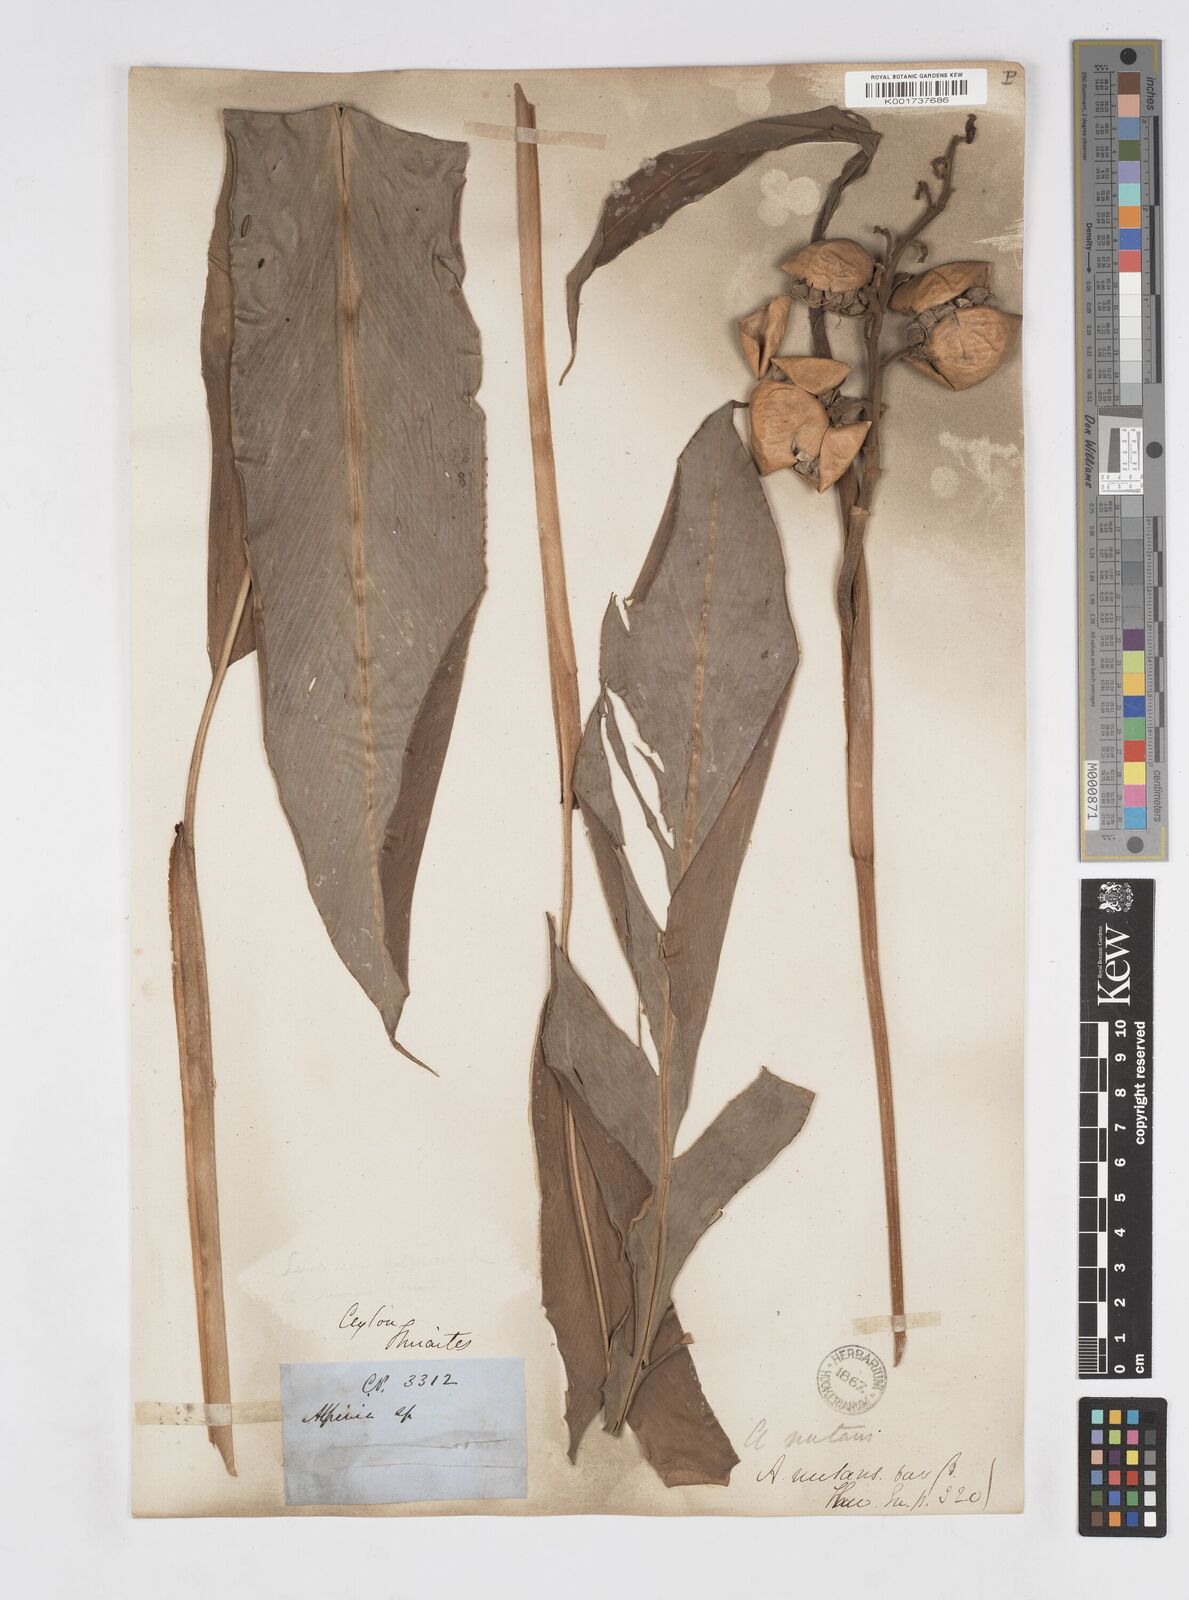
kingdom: Plantae
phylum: Tracheophyta
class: Liliopsida
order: Zingiberales
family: Zingiberaceae
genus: Alpinia
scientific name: Alpinia malaccensis
